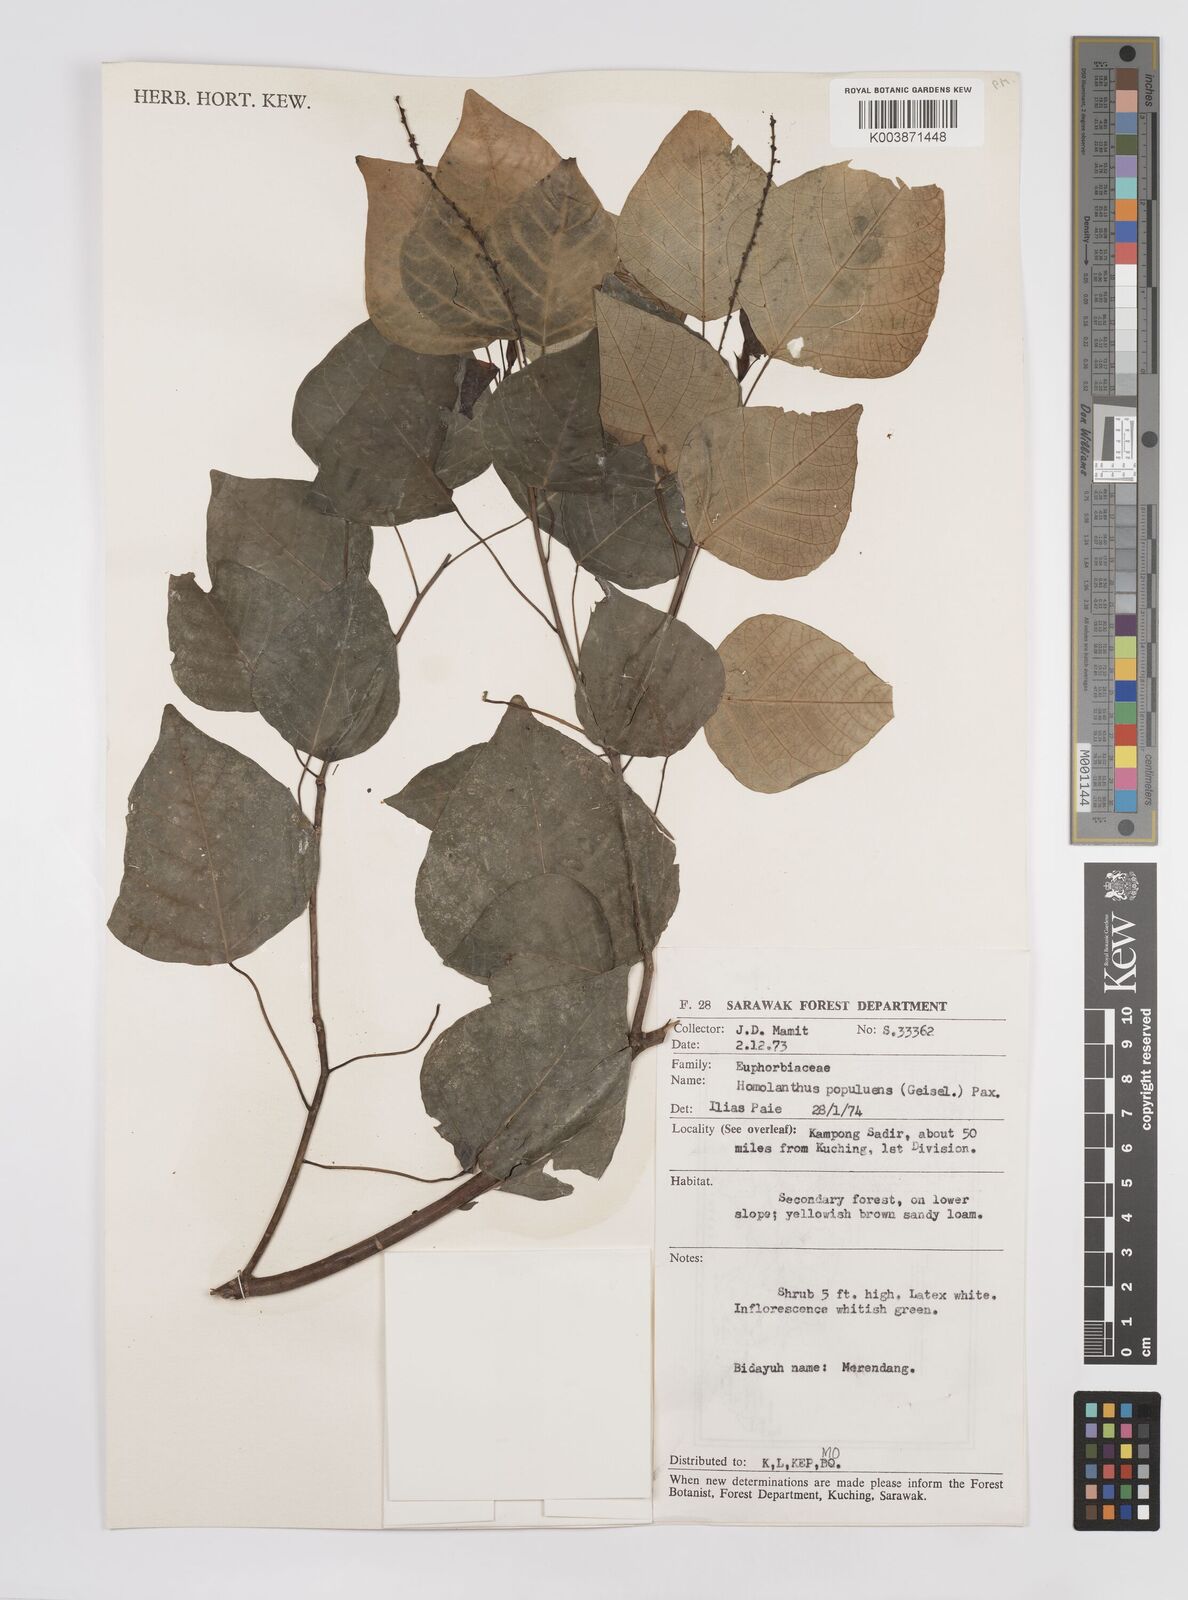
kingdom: Plantae
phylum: Tracheophyta
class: Magnoliopsida
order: Malpighiales
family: Euphorbiaceae
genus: Homalanthus
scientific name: Homalanthus populneus
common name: Spurge
